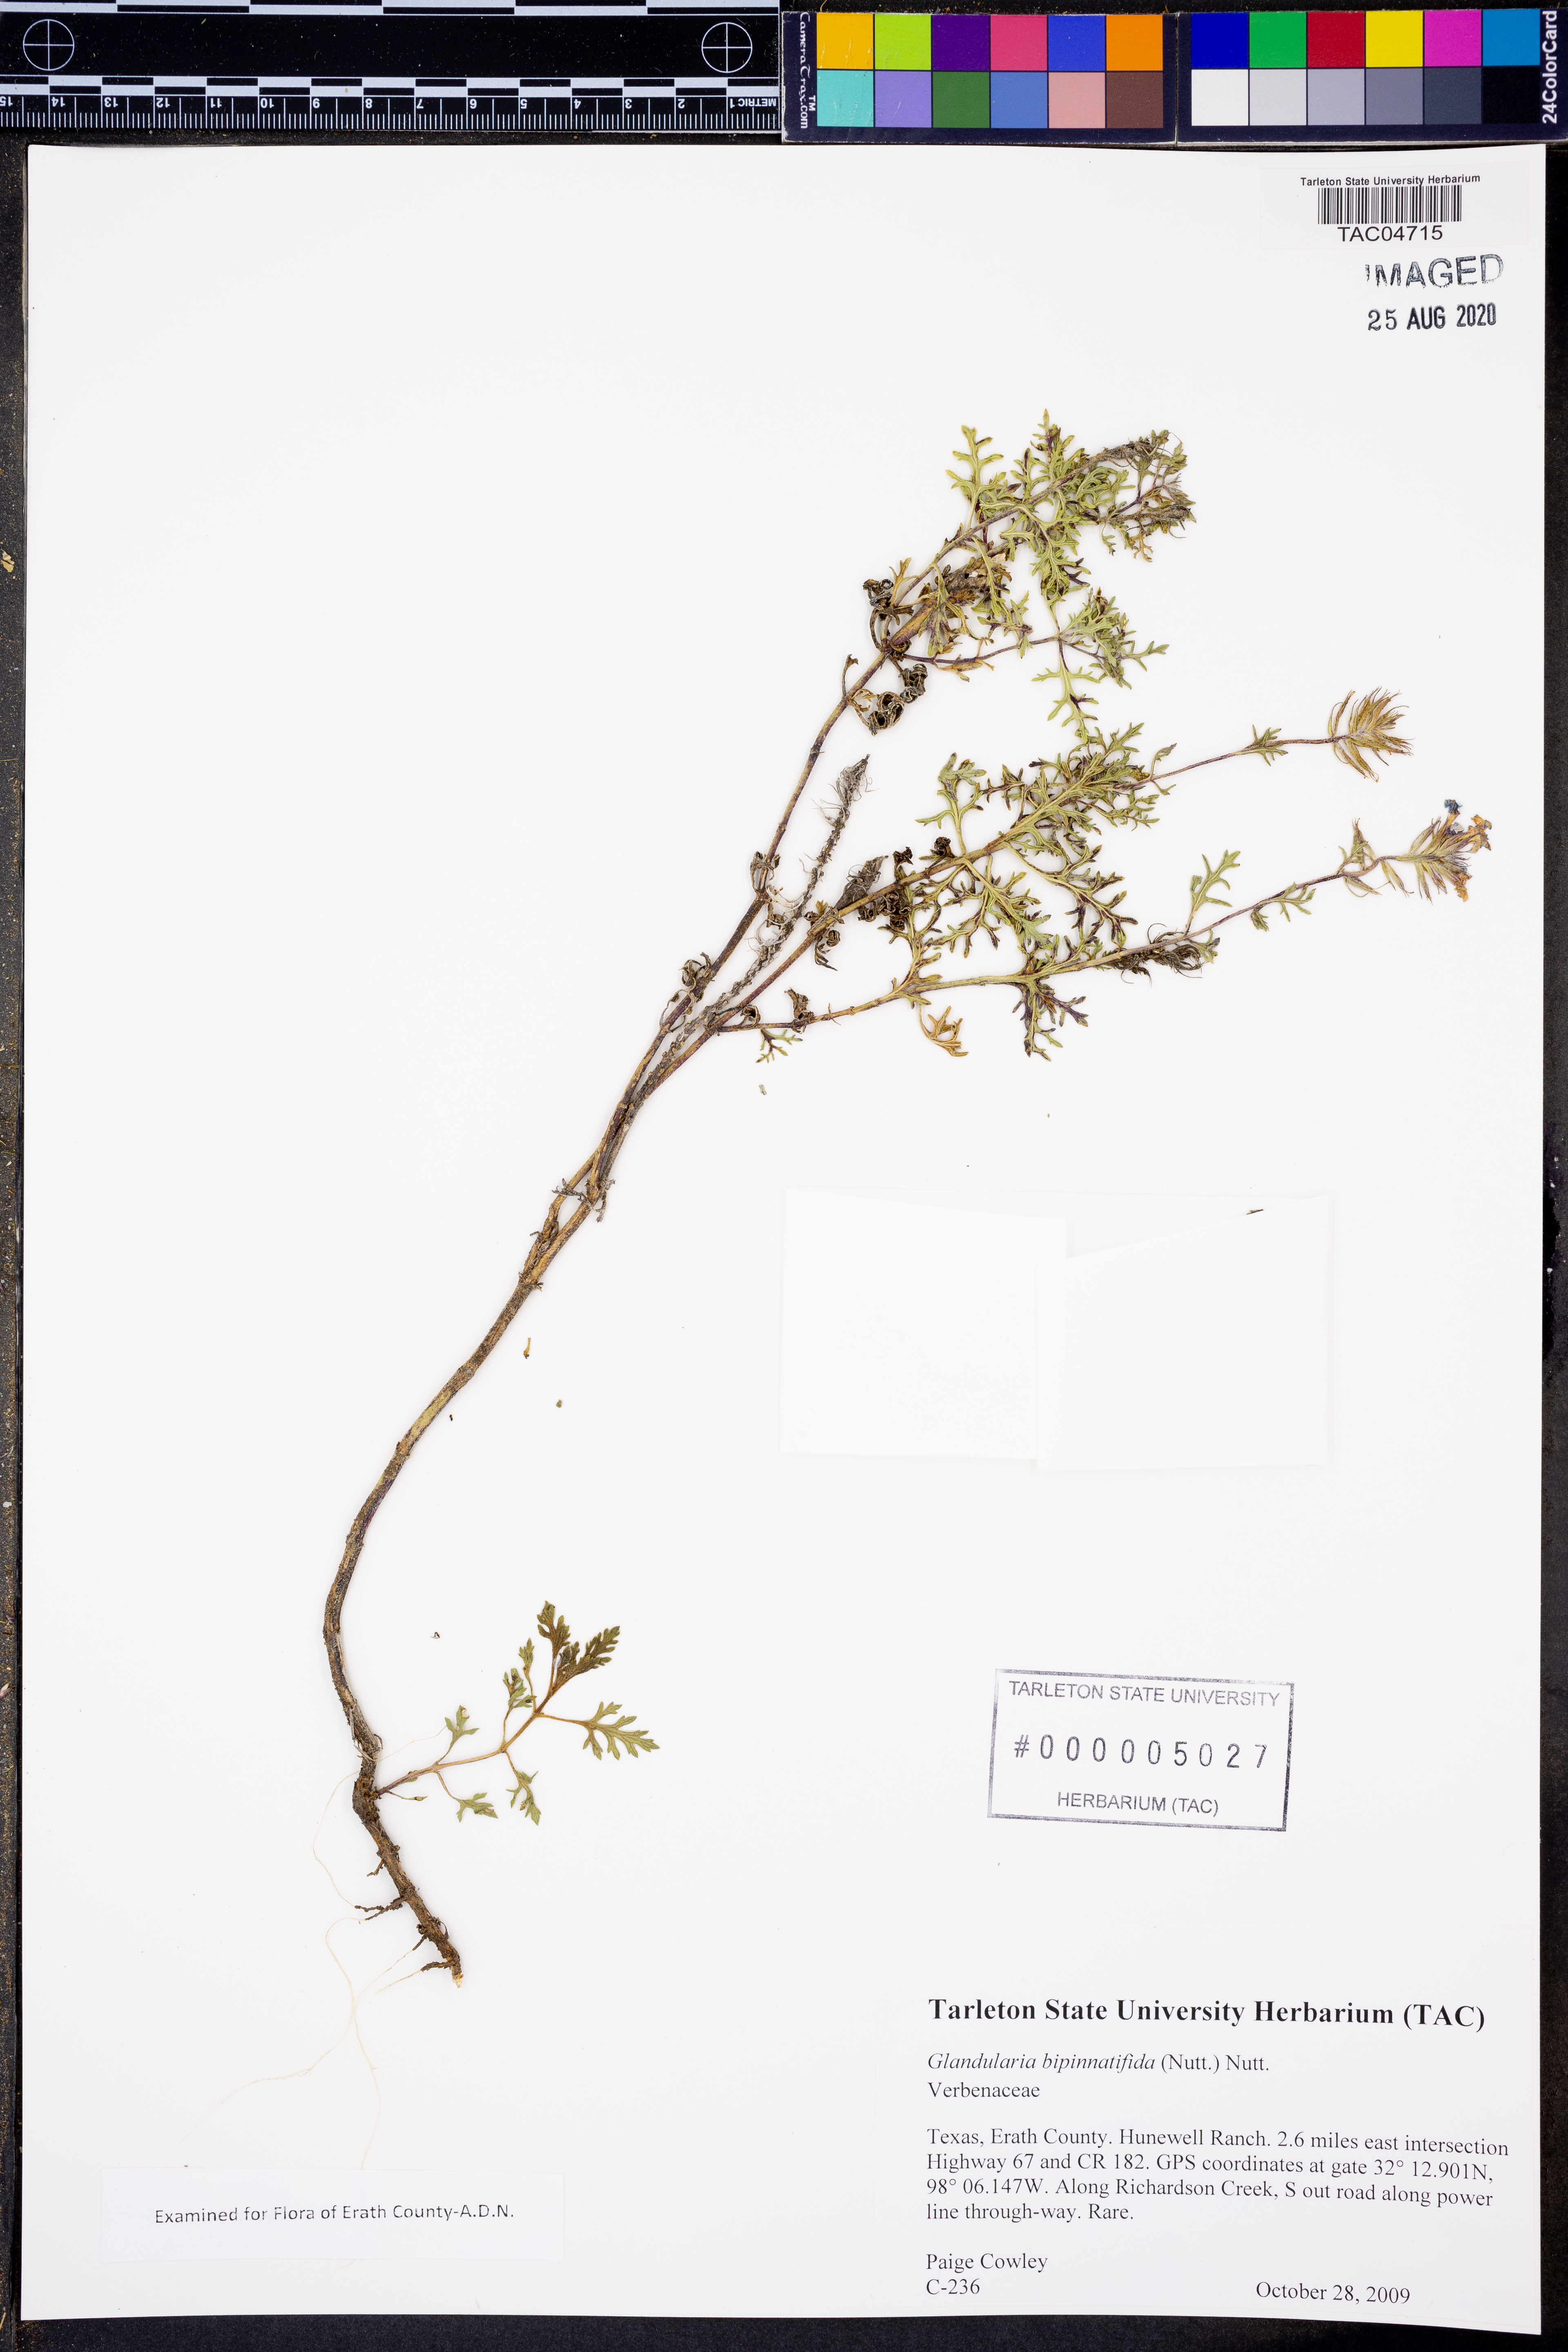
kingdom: Plantae
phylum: Tracheophyta
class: Magnoliopsida
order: Lamiales
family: Verbenaceae
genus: Verbena
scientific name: Verbena bipinnatifida
